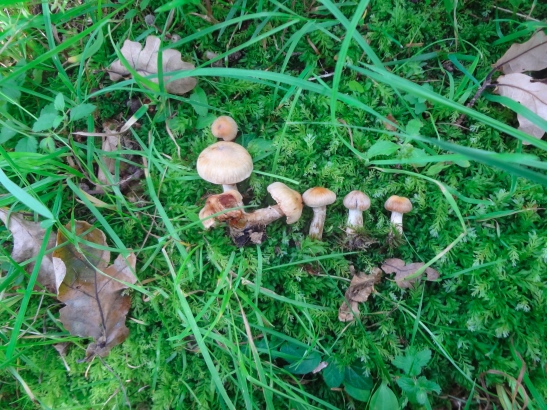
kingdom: Fungi
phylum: Basidiomycota
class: Agaricomycetes
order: Agaricales
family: Cortinariaceae
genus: Cortinarius
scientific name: Cortinarius luridus
